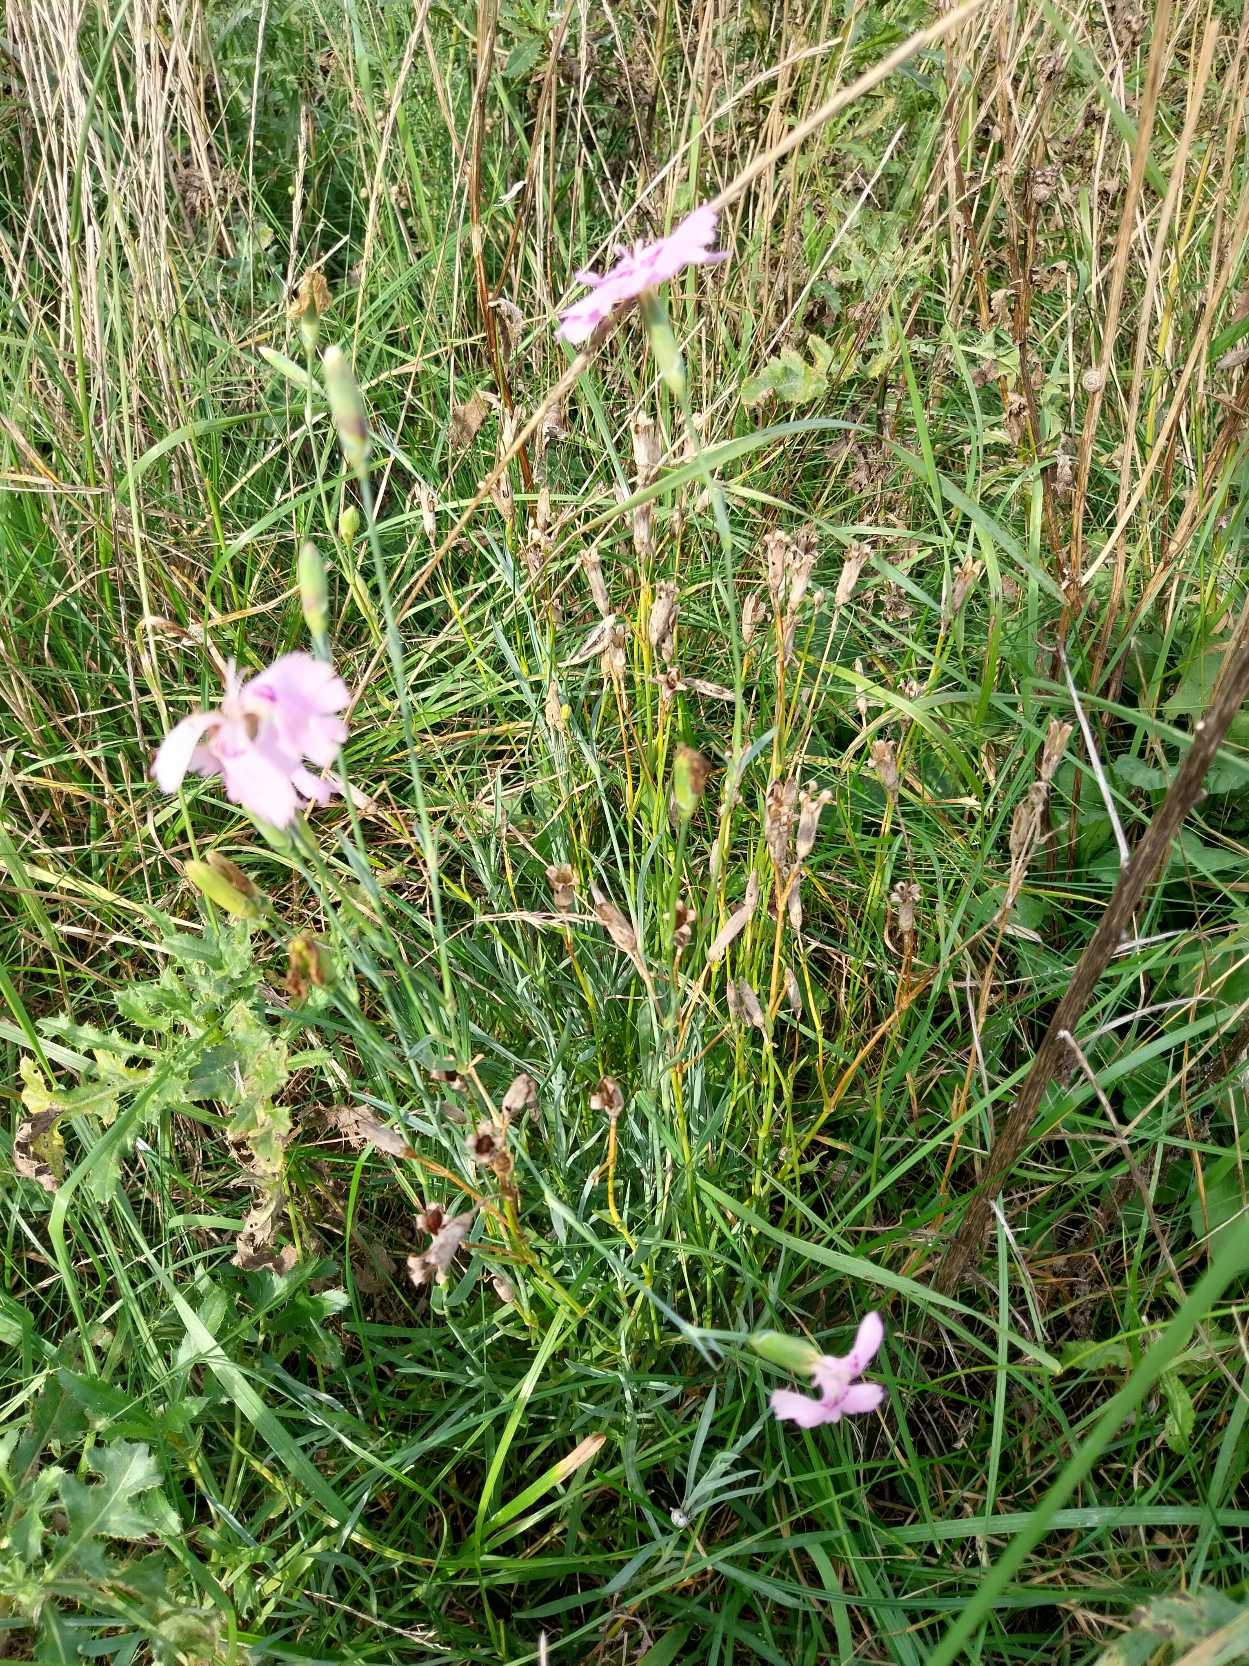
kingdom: Plantae
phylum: Tracheophyta
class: Magnoliopsida
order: Caryophyllales
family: Caryophyllaceae
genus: Dianthus
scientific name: Dianthus caryophyllus
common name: Have-nellike
